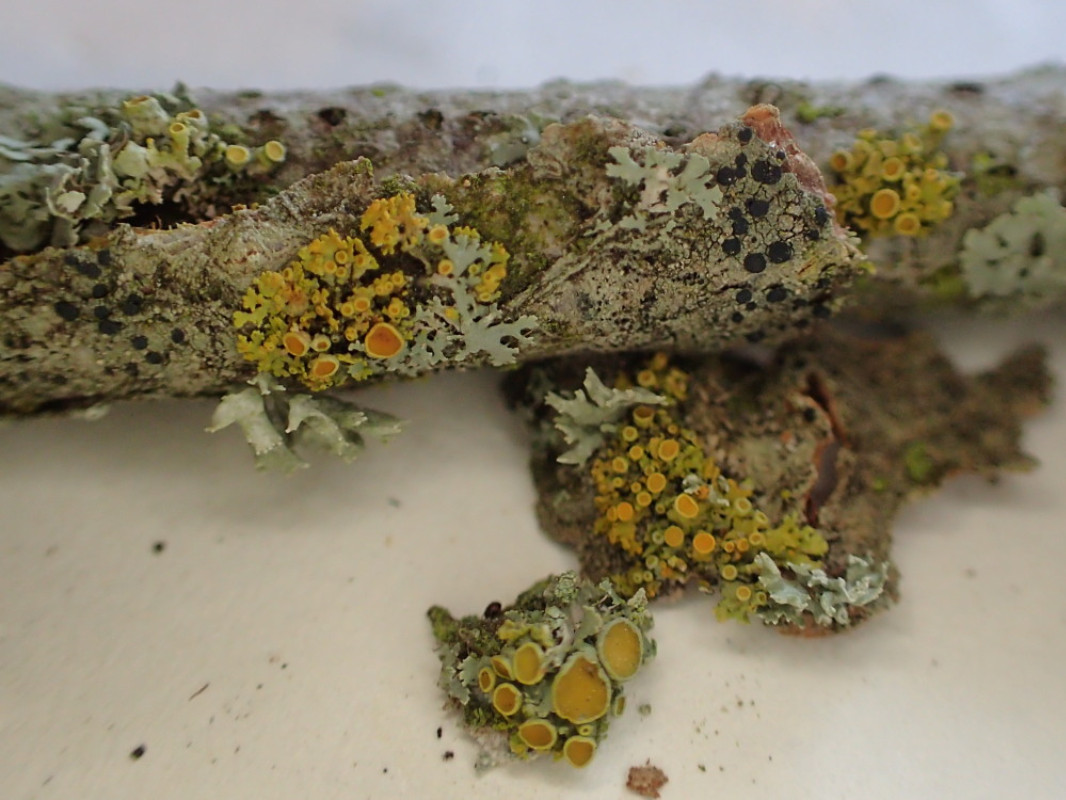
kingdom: Fungi
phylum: Ascomycota
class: Lecanoromycetes
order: Teloschistales
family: Teloschistaceae
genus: Polycauliona
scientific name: Polycauliona polycarpa
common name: mangefrugtet orangelav
